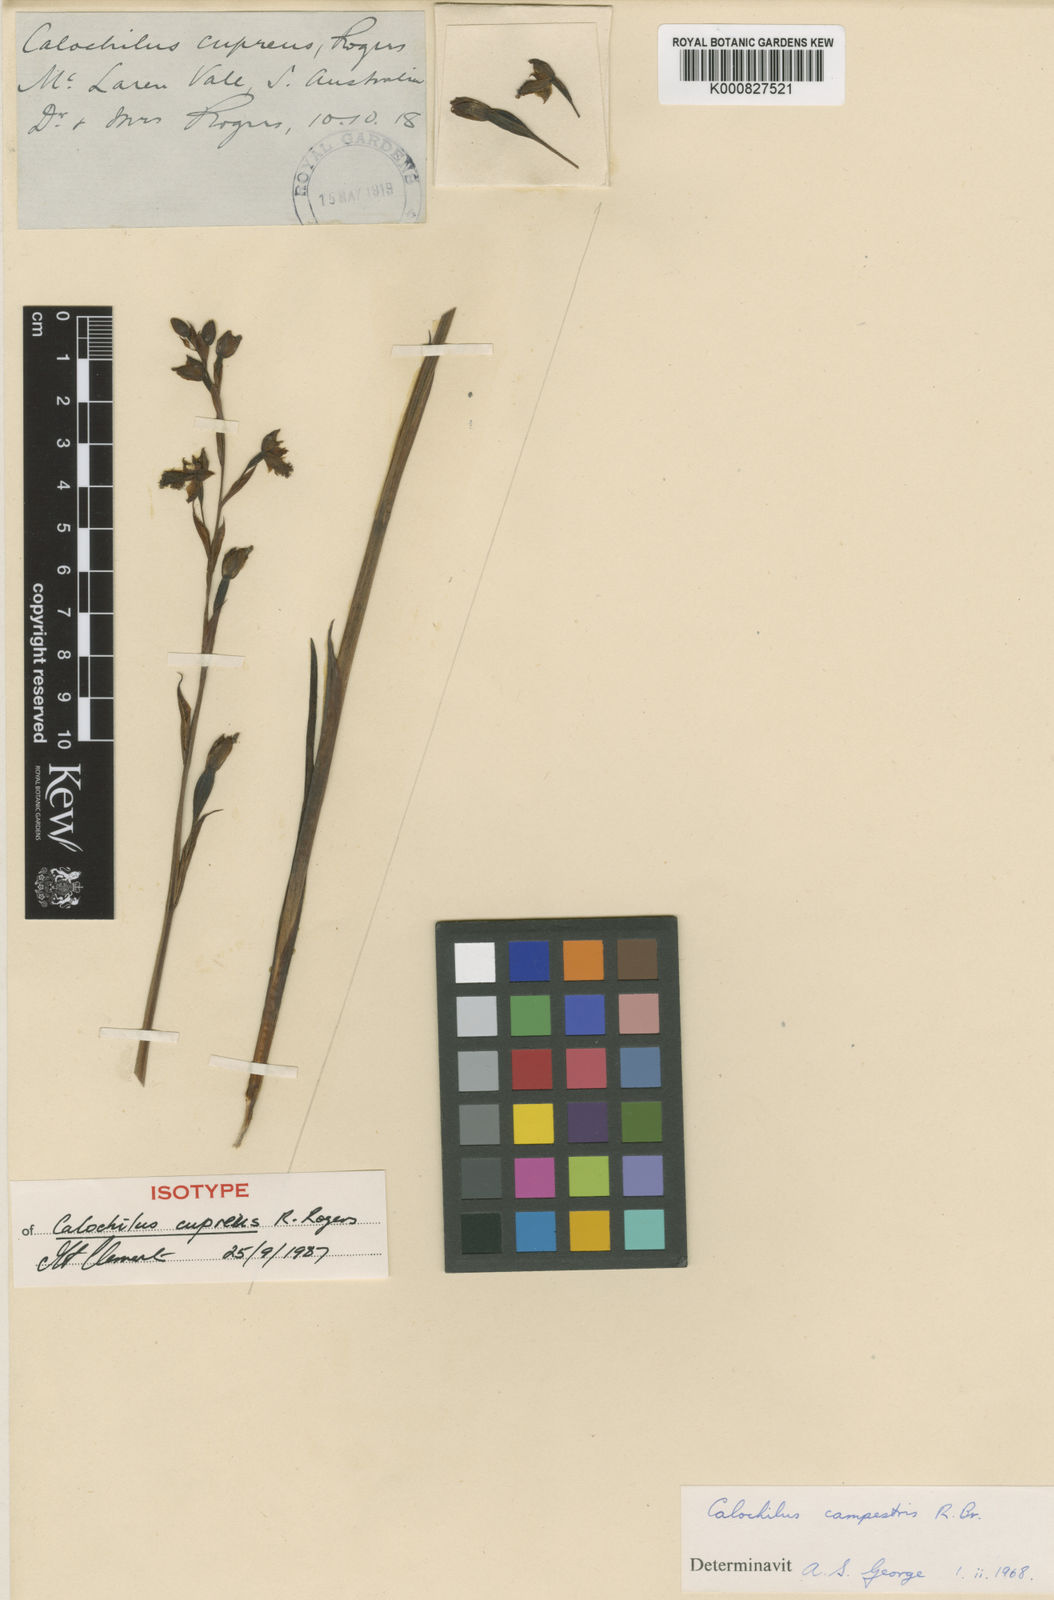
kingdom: Plantae
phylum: Tracheophyta
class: Liliopsida
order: Asparagales
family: Orchidaceae
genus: Calochilus
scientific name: Calochilus campestris
